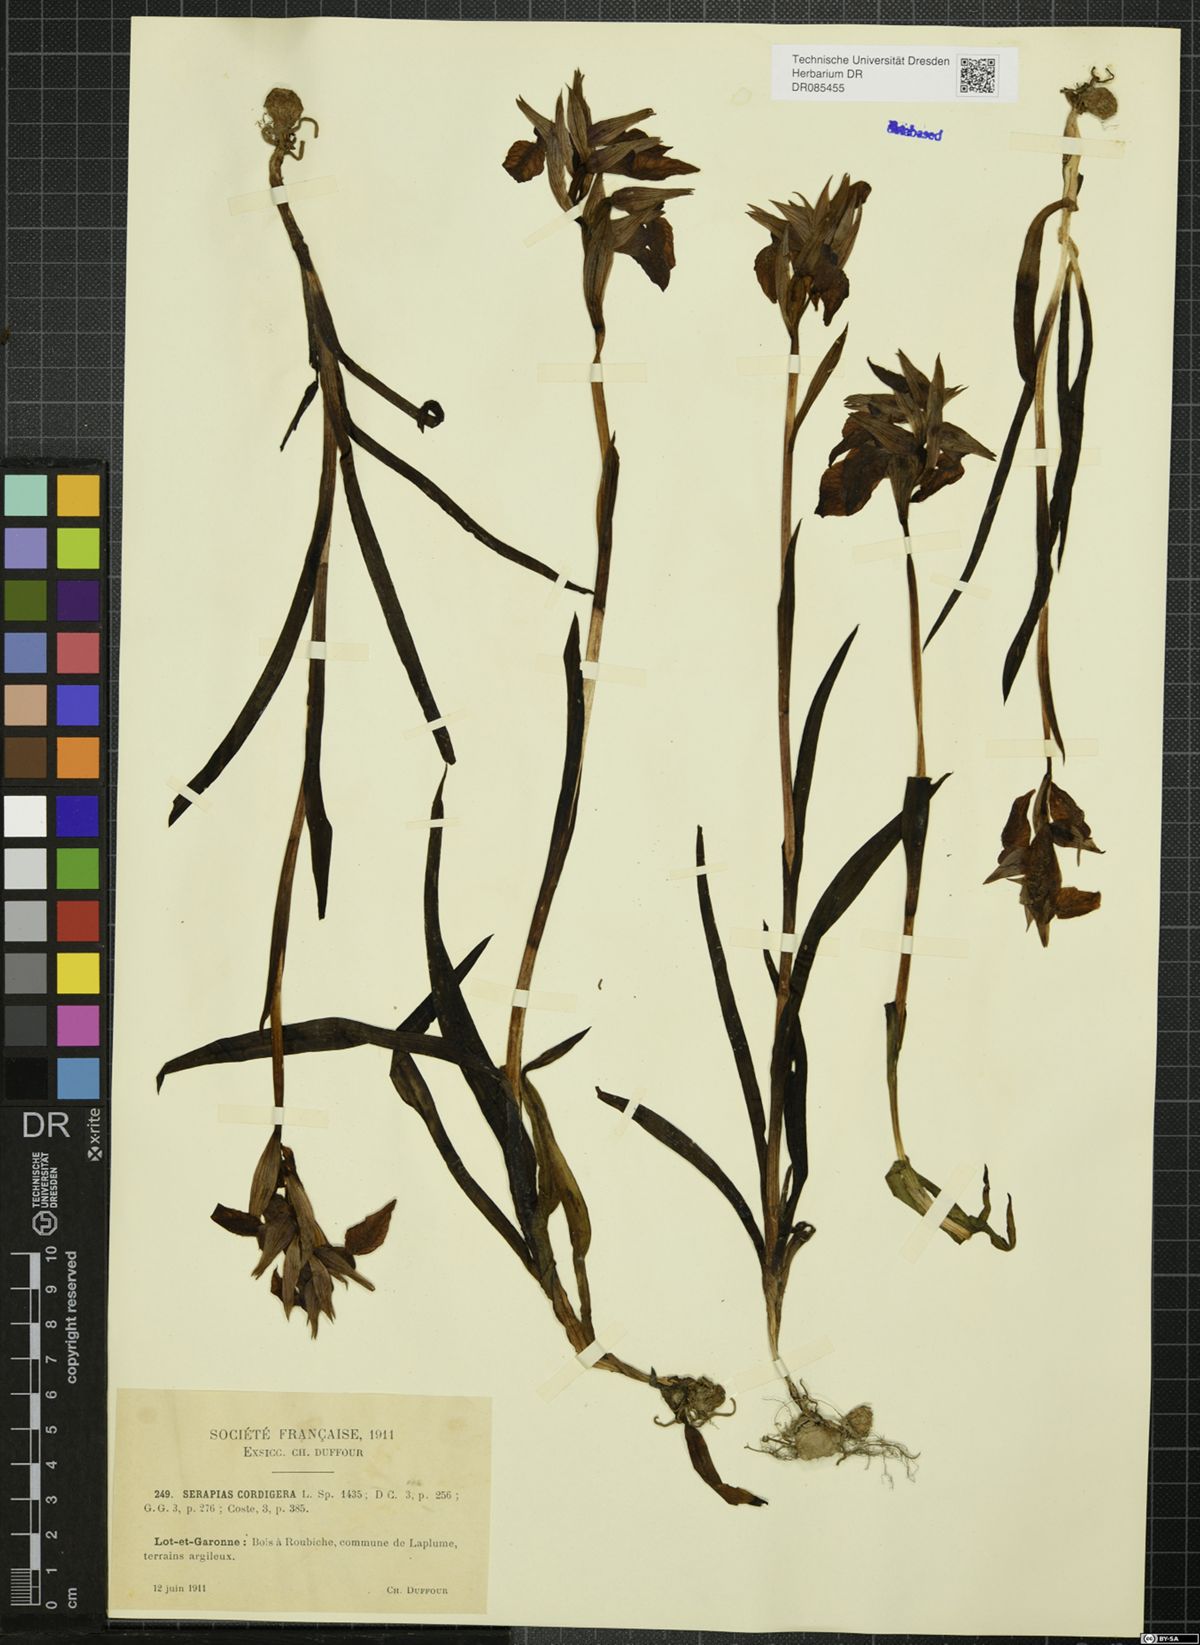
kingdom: Plantae
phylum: Tracheophyta
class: Liliopsida
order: Asparagales
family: Orchidaceae
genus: Serapias
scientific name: Serapias cordigera
